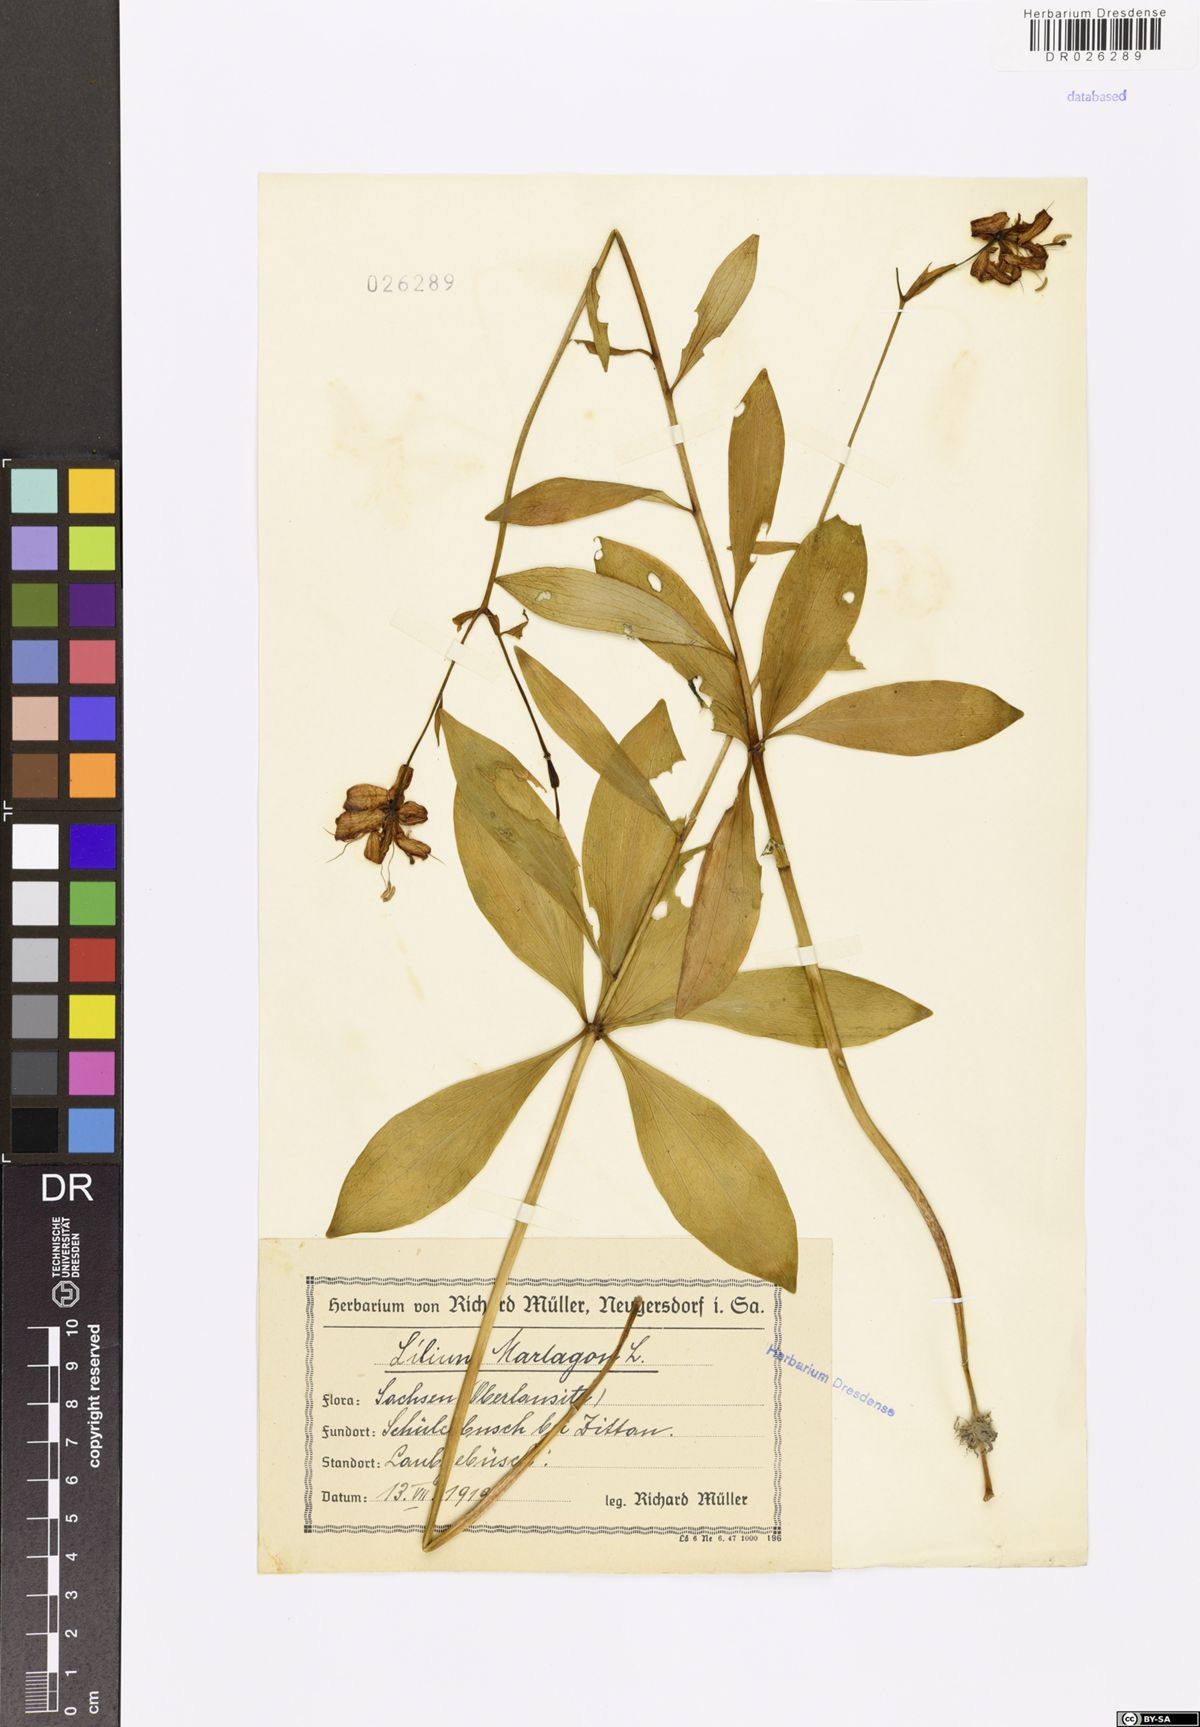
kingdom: Plantae
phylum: Tracheophyta
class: Liliopsida
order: Liliales
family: Liliaceae
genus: Lilium
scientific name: Lilium martagon
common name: Martagon lily
